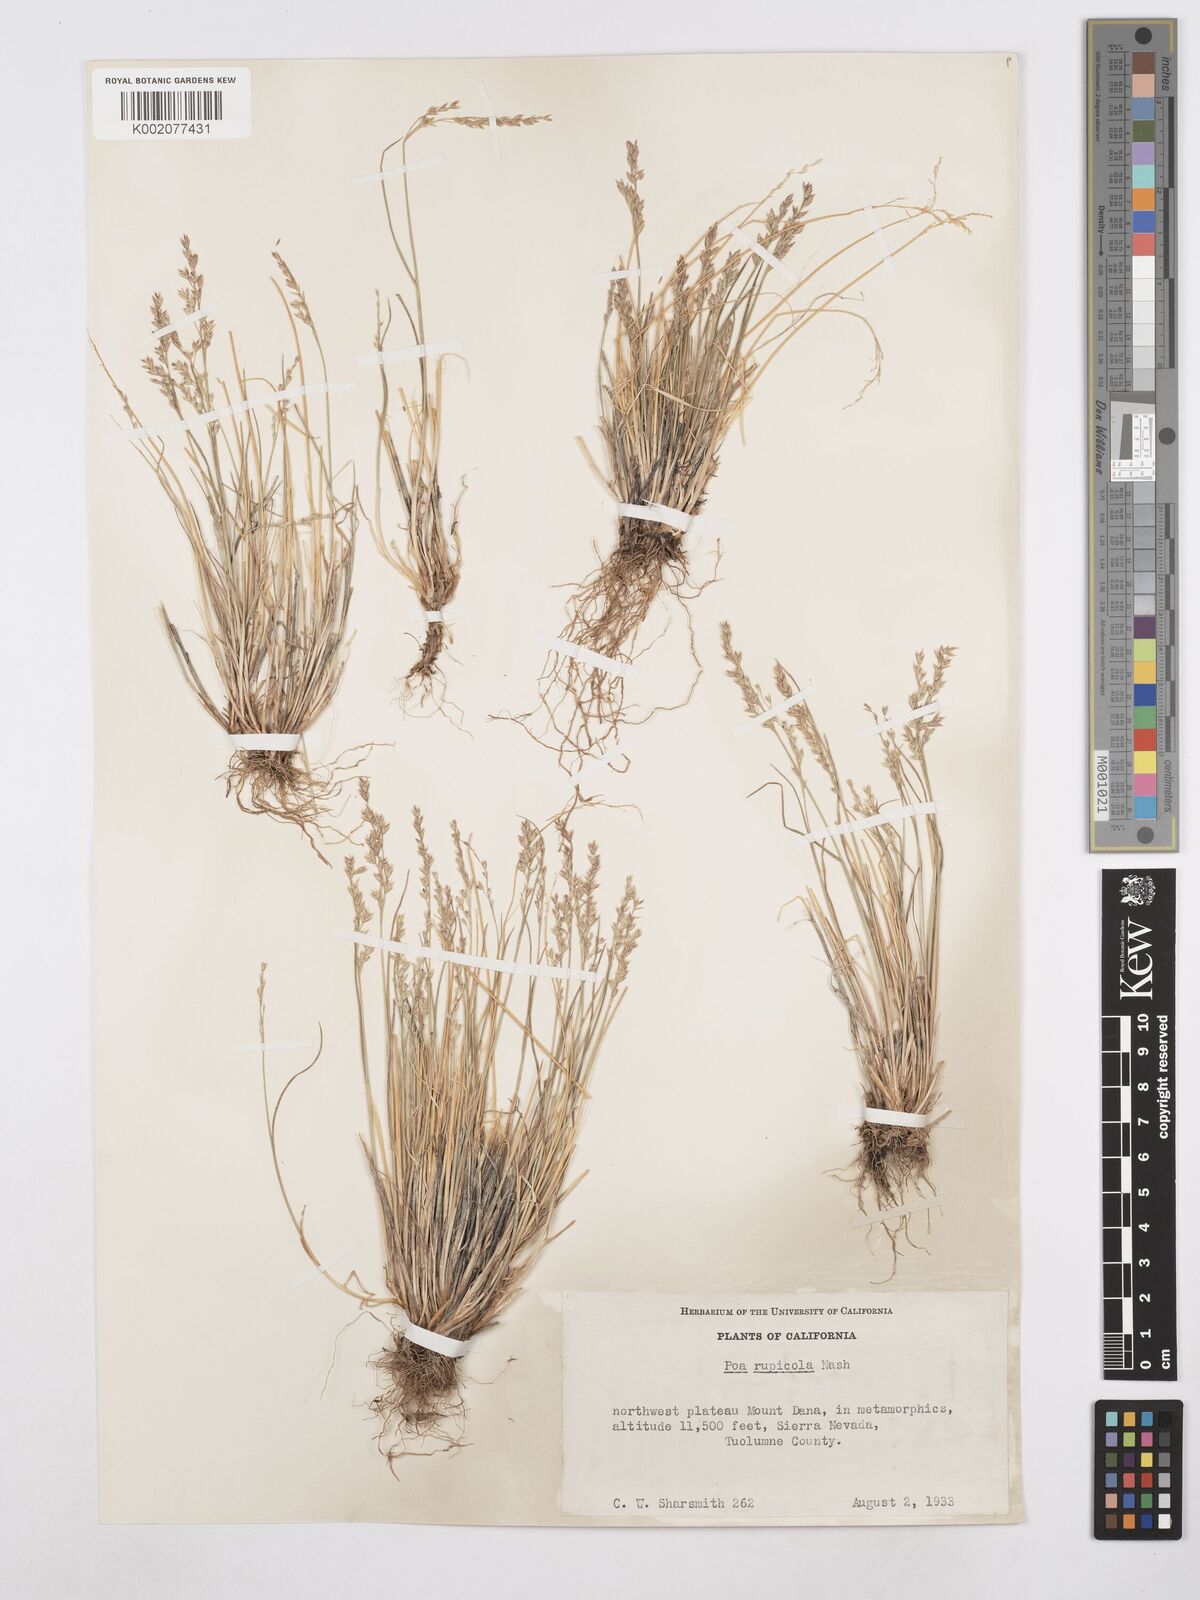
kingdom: Plantae
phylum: Tracheophyta
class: Liliopsida
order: Poales
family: Poaceae
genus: Poa
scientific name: Poa glauca
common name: Glaucous bluegrass
